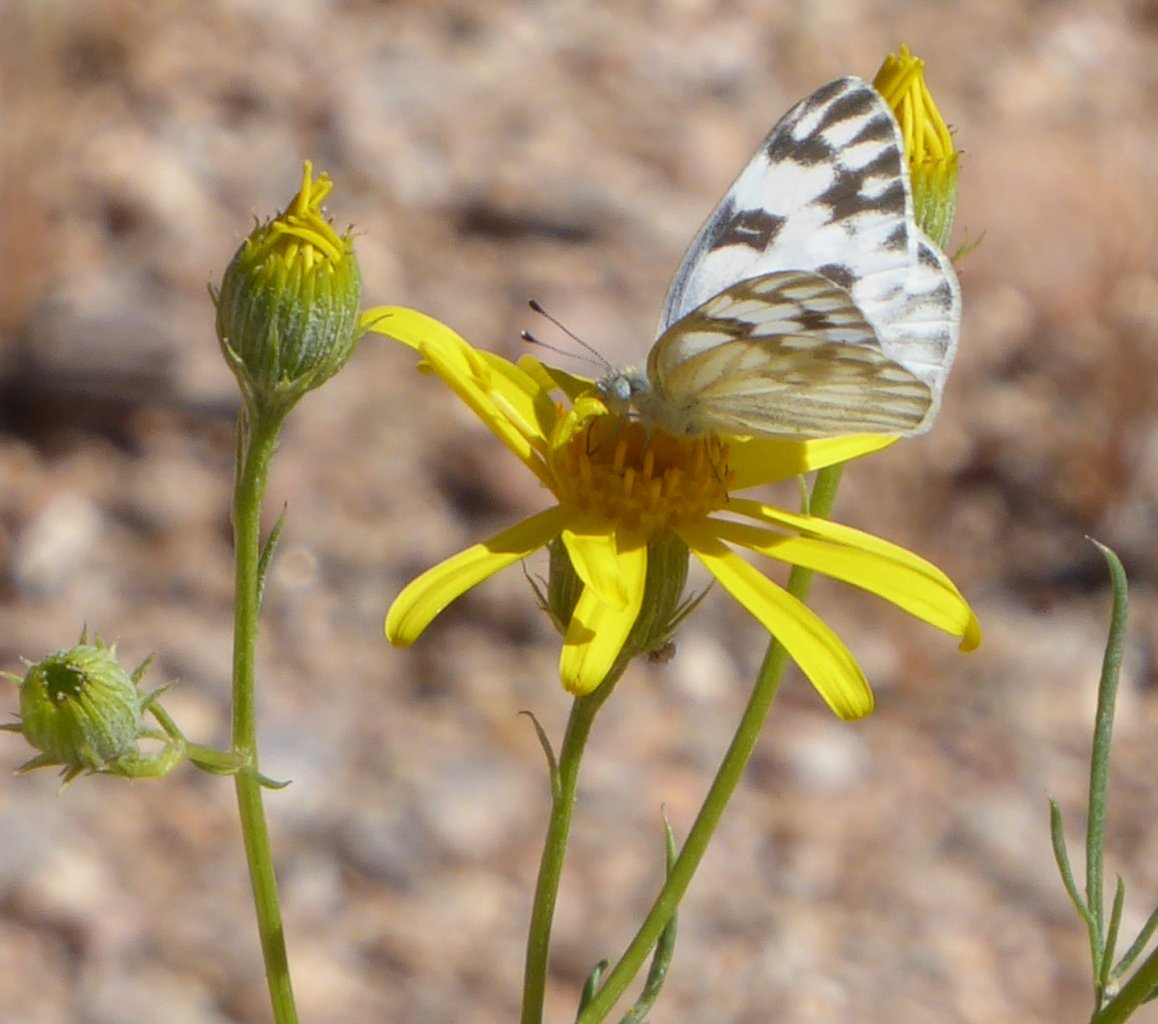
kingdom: Animalia
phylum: Arthropoda
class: Insecta
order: Lepidoptera
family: Pieridae
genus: Pontia
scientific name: Pontia protodice
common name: Checkered White
